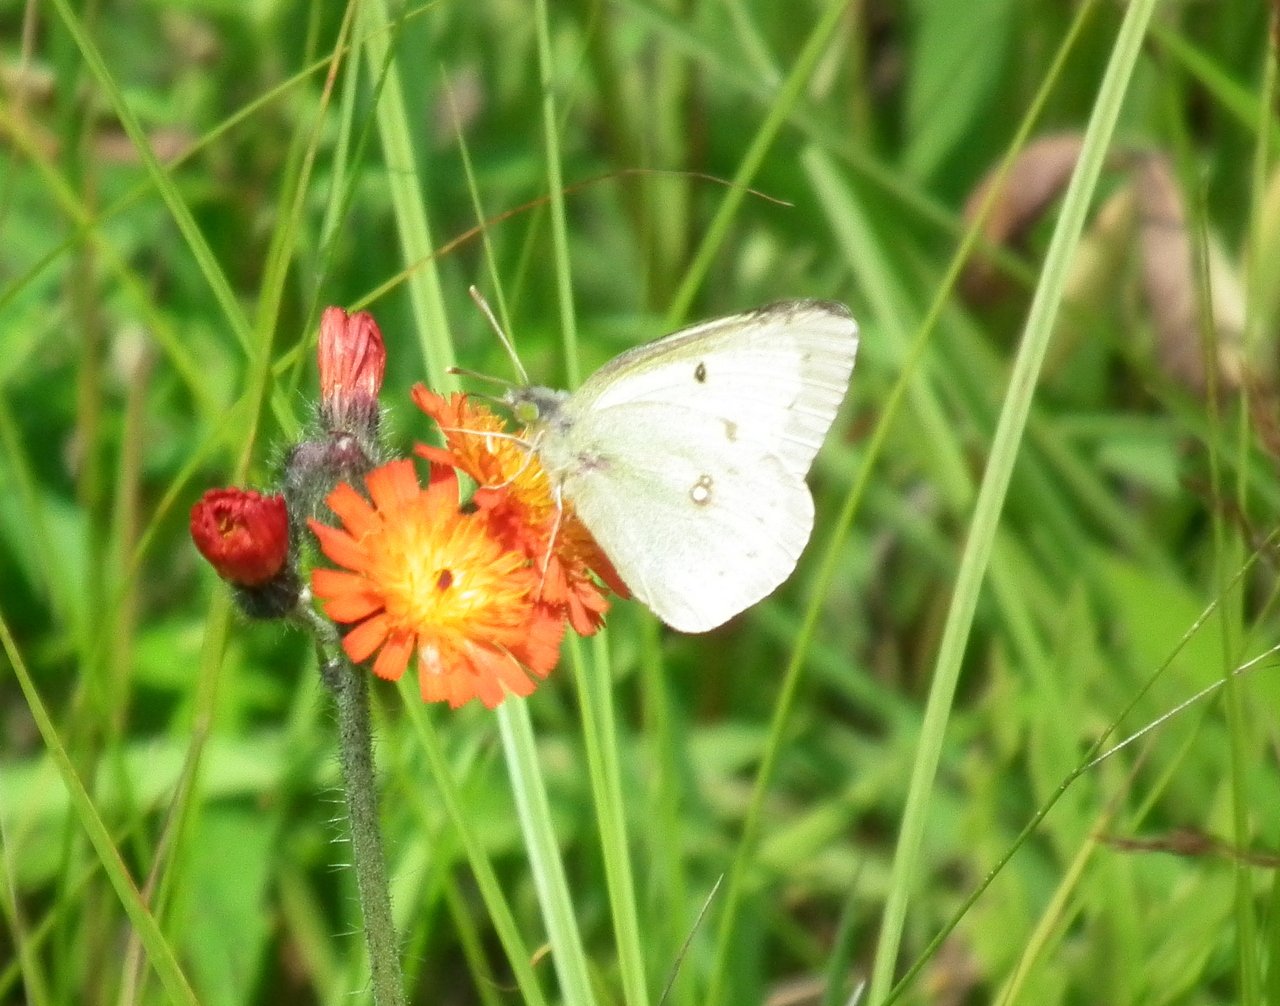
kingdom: Animalia
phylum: Arthropoda
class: Insecta
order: Lepidoptera
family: Pieridae
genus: Colias
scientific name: Colias philodice
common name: Clouded Sulphur
